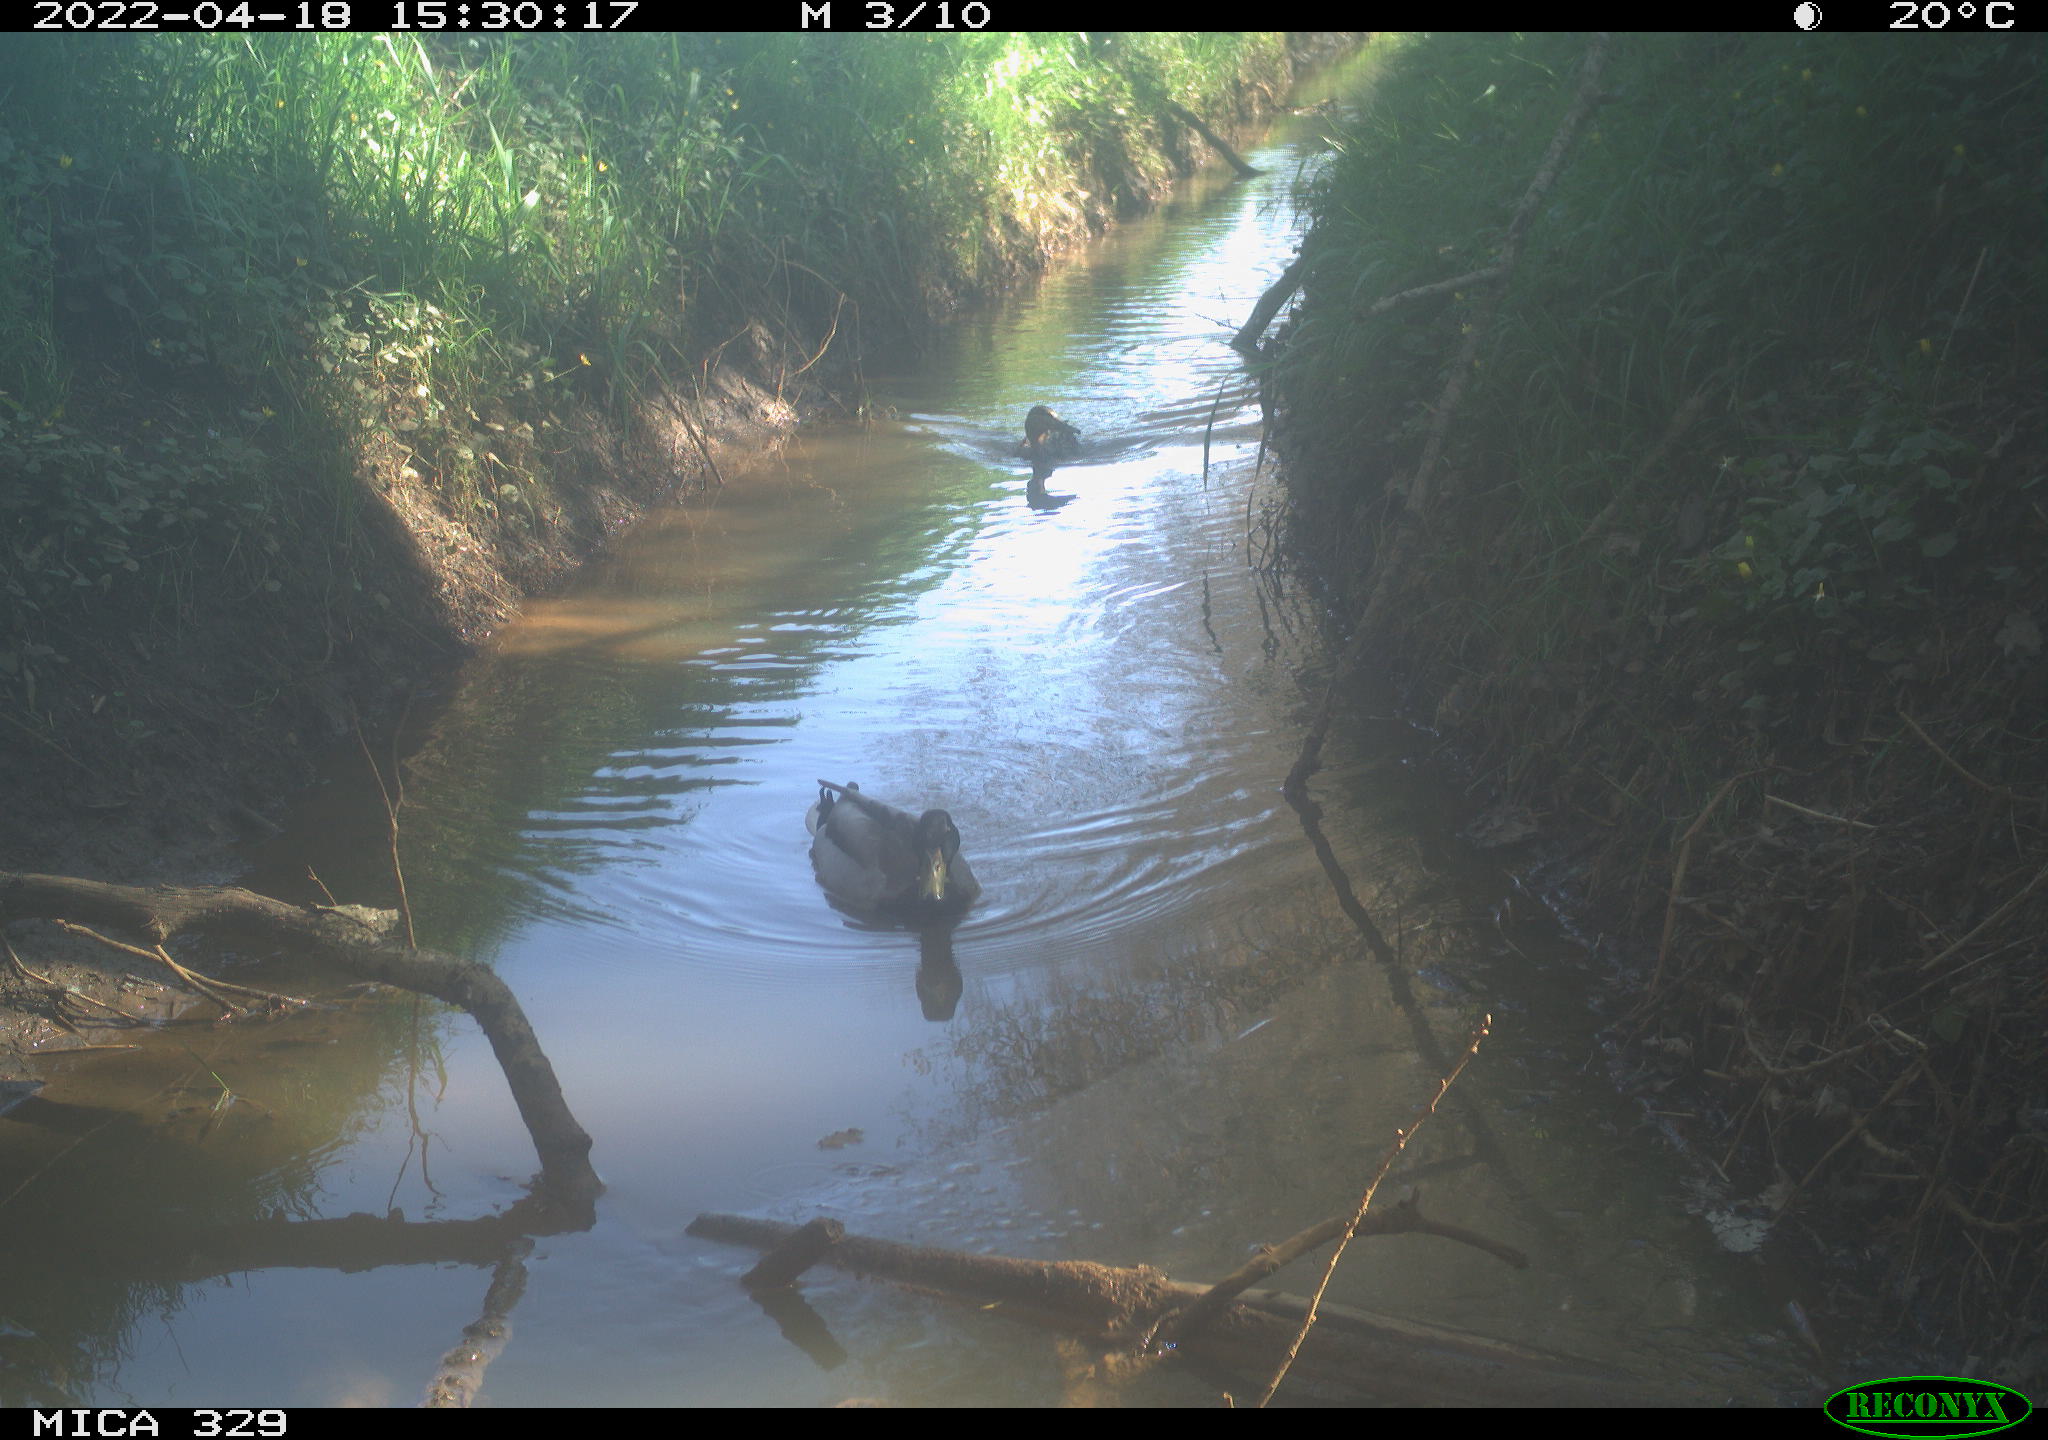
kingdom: Animalia
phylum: Chordata
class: Aves
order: Anseriformes
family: Anatidae
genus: Anas
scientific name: Anas platyrhynchos
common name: Mallard
